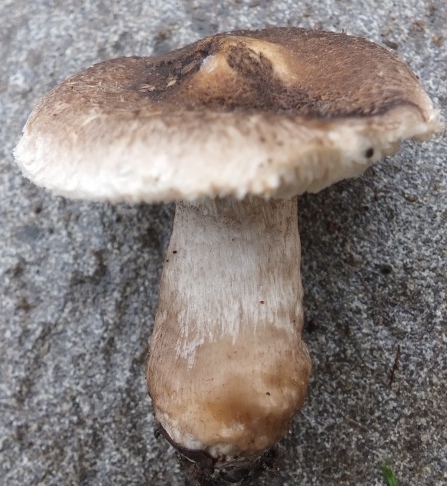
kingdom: Fungi
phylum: Basidiomycota
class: Agaricomycetes
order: Agaricales
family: Tricholomataceae
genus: Tricholoma
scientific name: Tricholoma atrosquamosum
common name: sortskællet ridderhat
